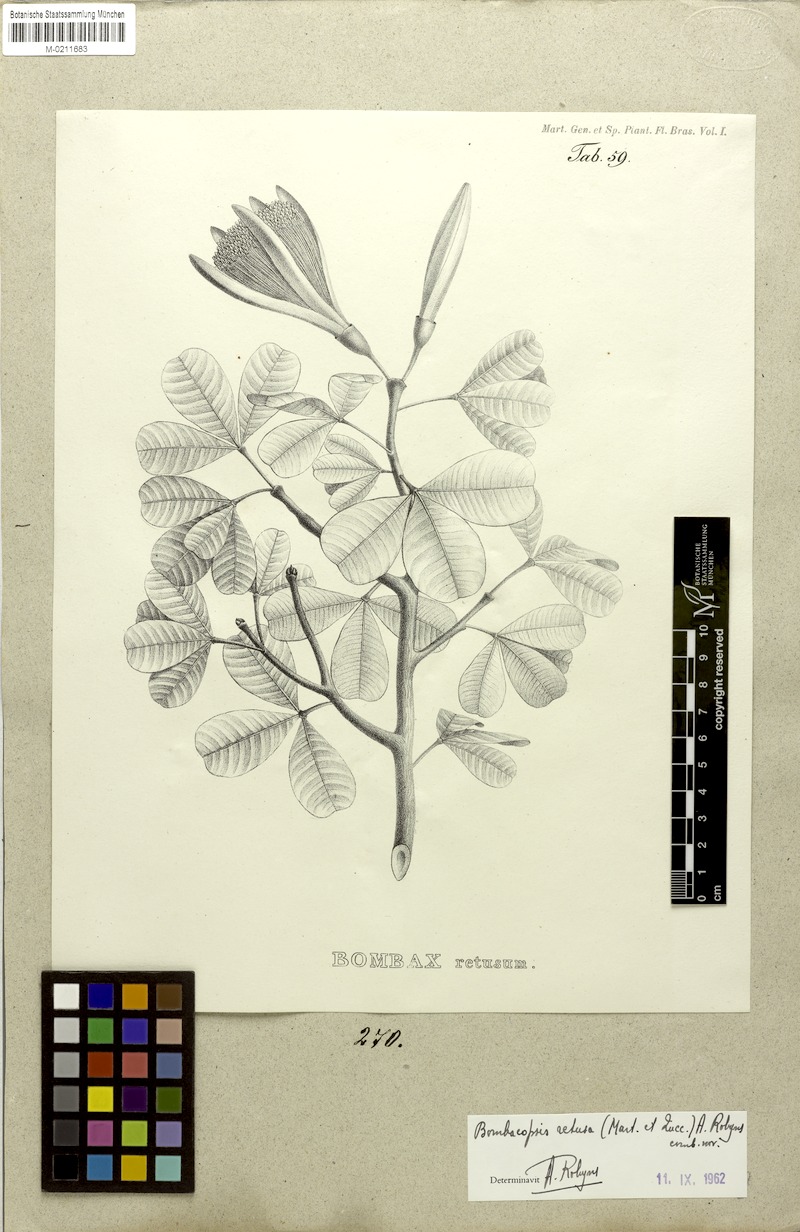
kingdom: Plantae
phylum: Tracheophyta
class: Magnoliopsida
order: Malvales
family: Malvaceae
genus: Pachira
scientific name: Pachira retusa
